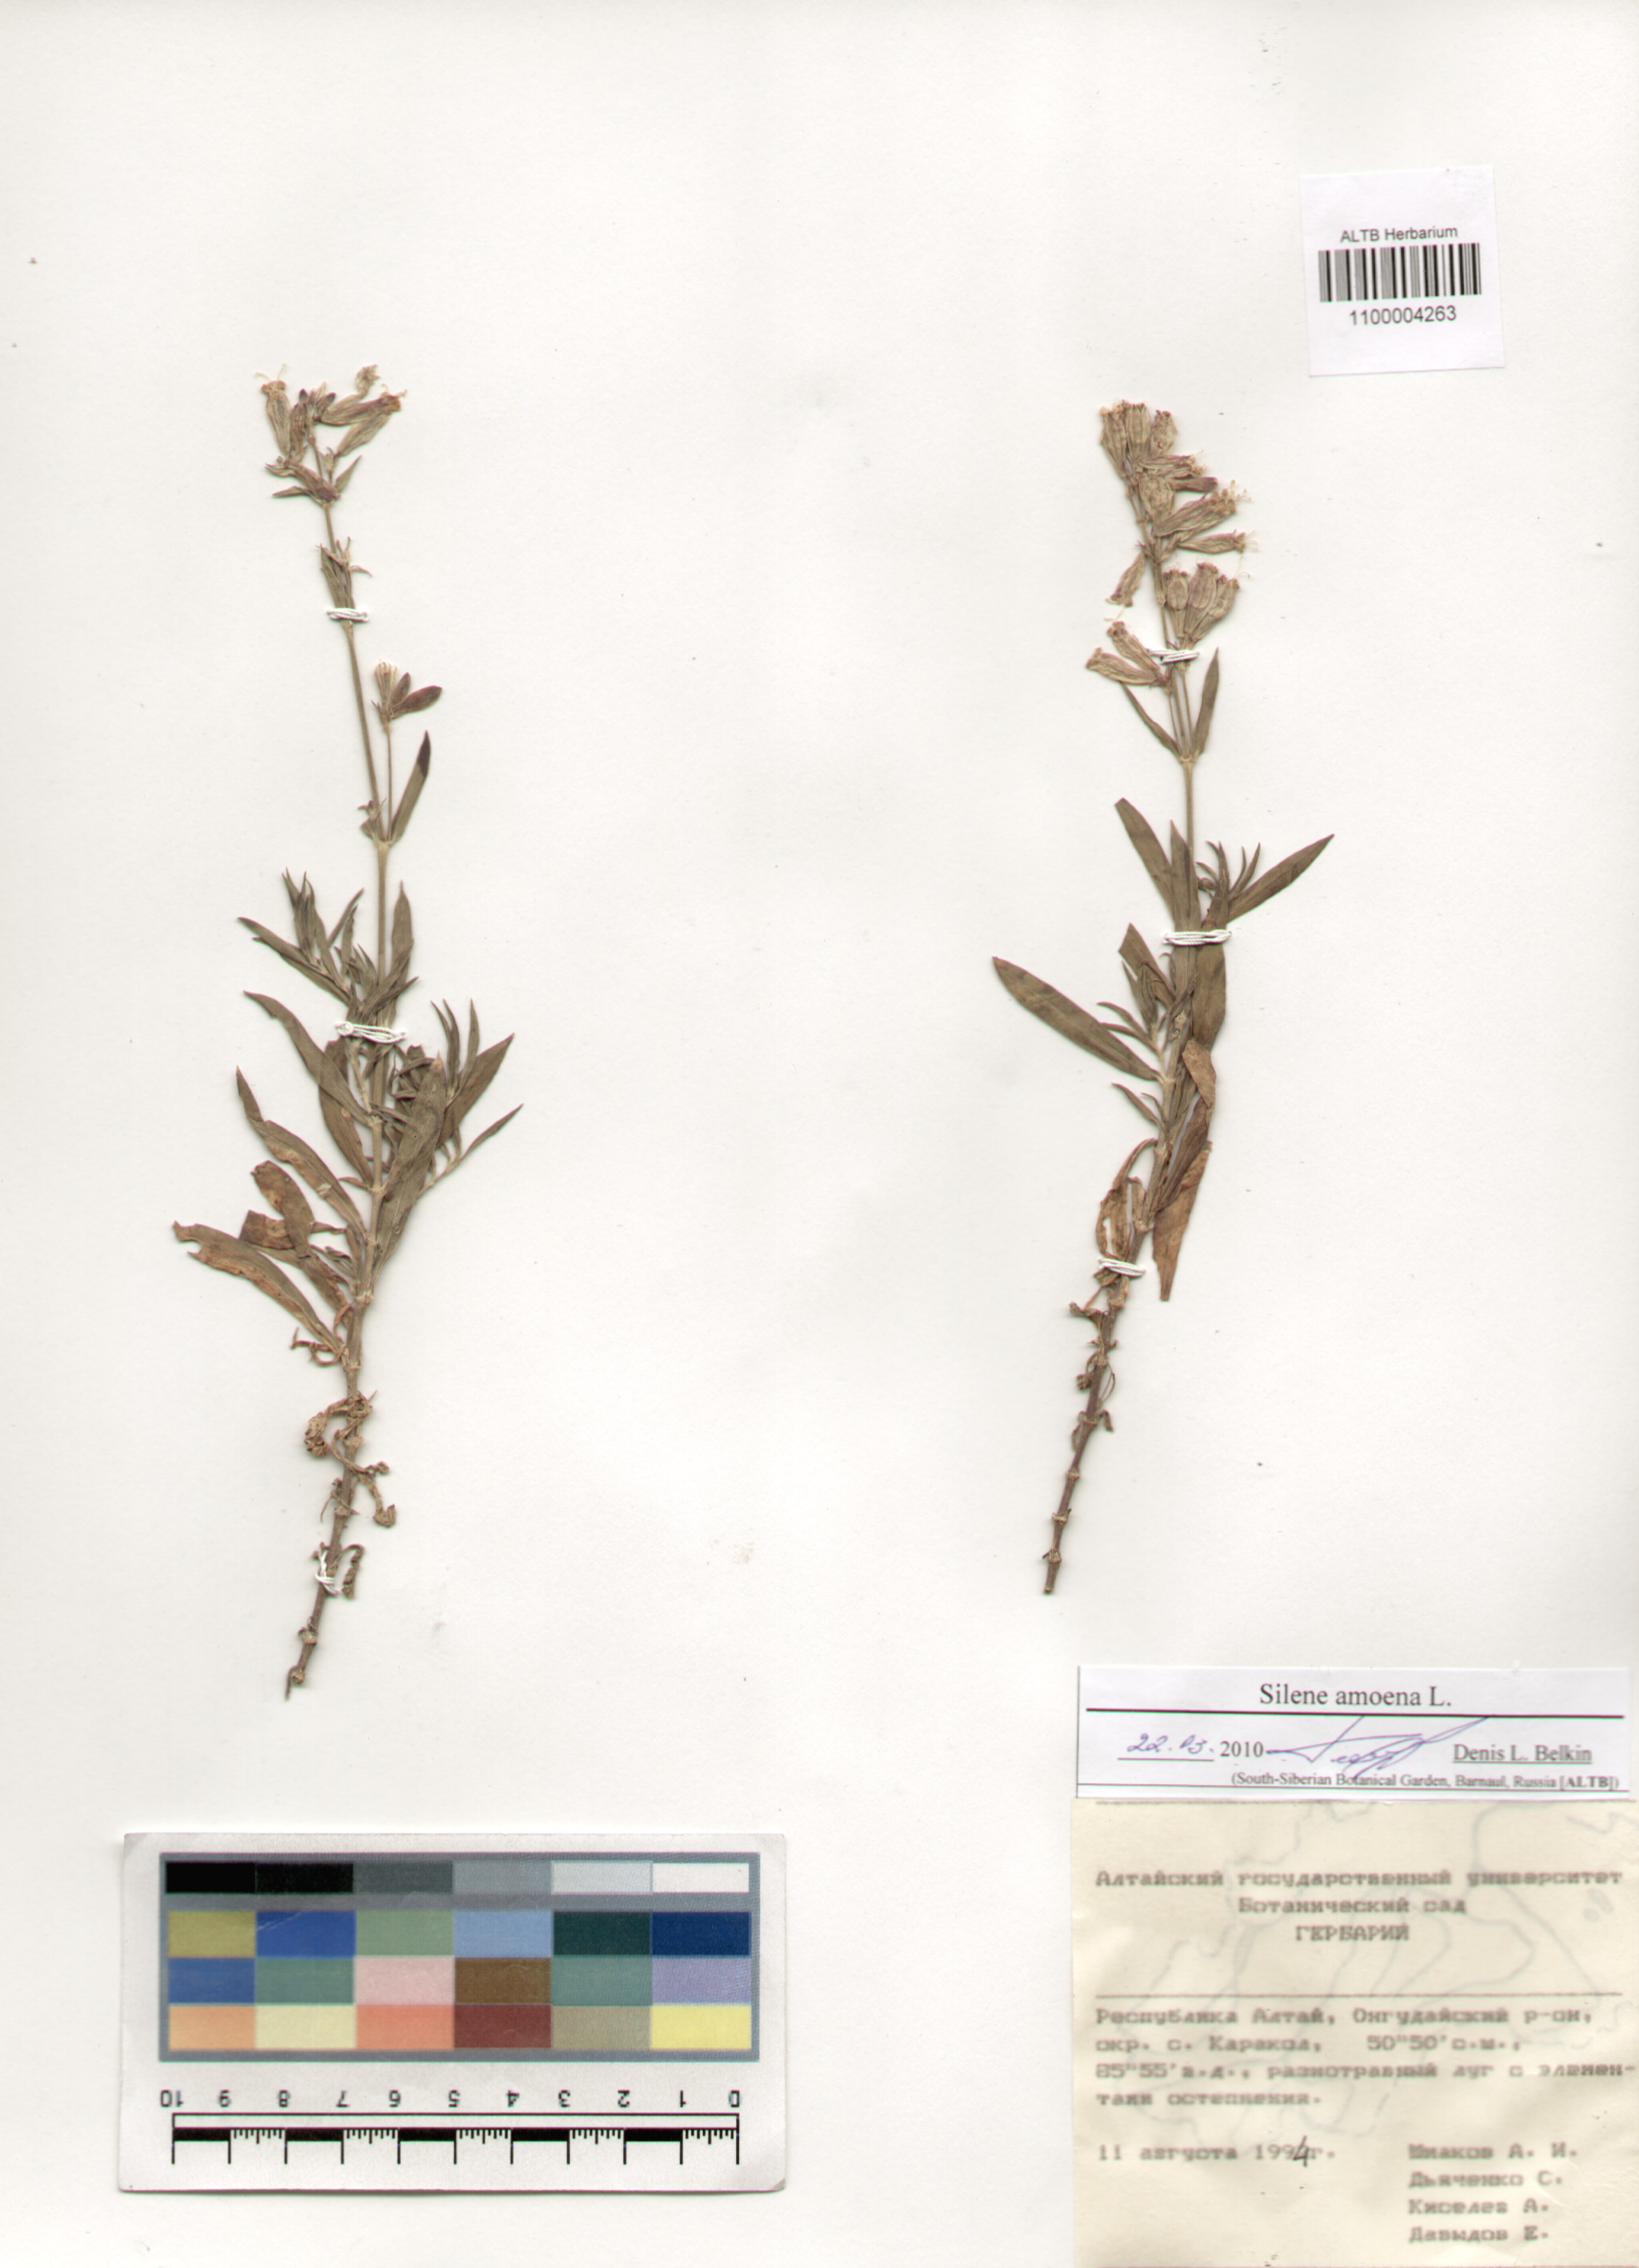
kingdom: Plantae
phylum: Tracheophyta
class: Magnoliopsida
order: Caryophyllales
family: Caryophyllaceae
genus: Silene
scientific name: Silene amoena
